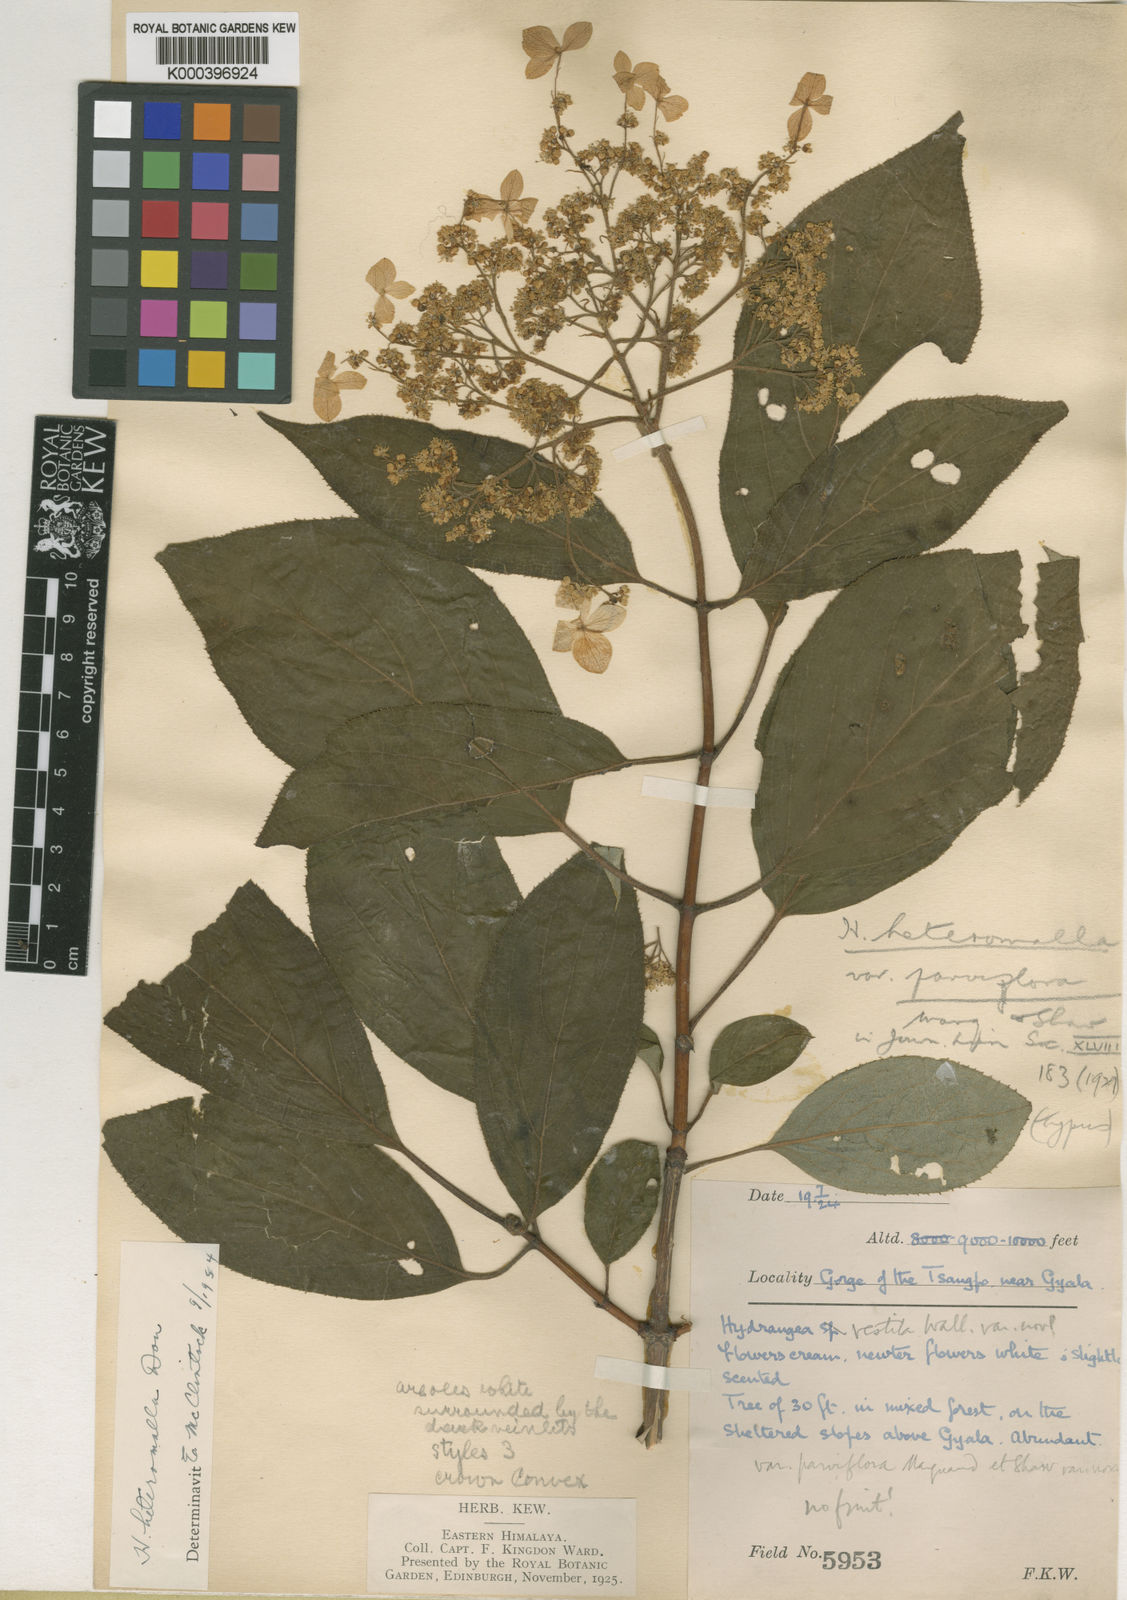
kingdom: Plantae
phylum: Tracheophyta
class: Magnoliopsida
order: Cornales
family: Hydrangeaceae
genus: Hydrangea
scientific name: Hydrangea heteromalla
